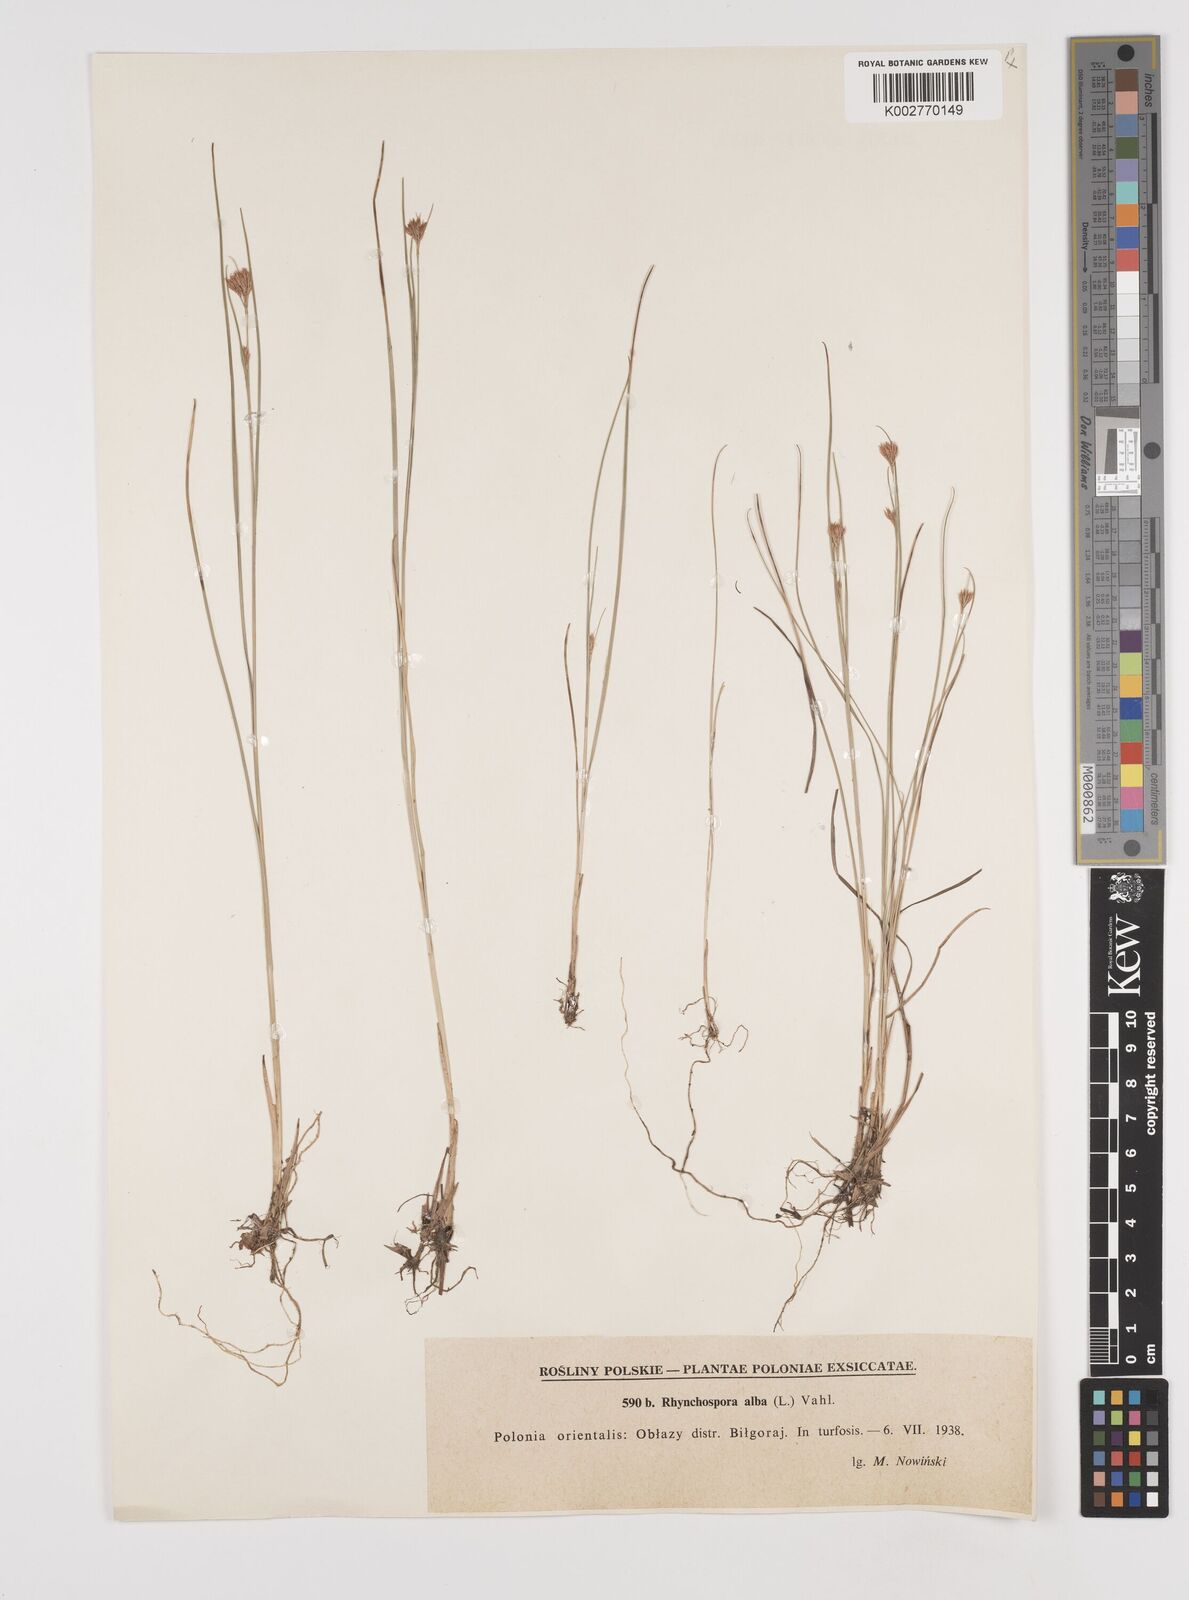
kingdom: Plantae
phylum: Tracheophyta
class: Liliopsida
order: Poales
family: Cyperaceae
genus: Rhynchospora
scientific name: Rhynchospora alba
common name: White beak-sedge
